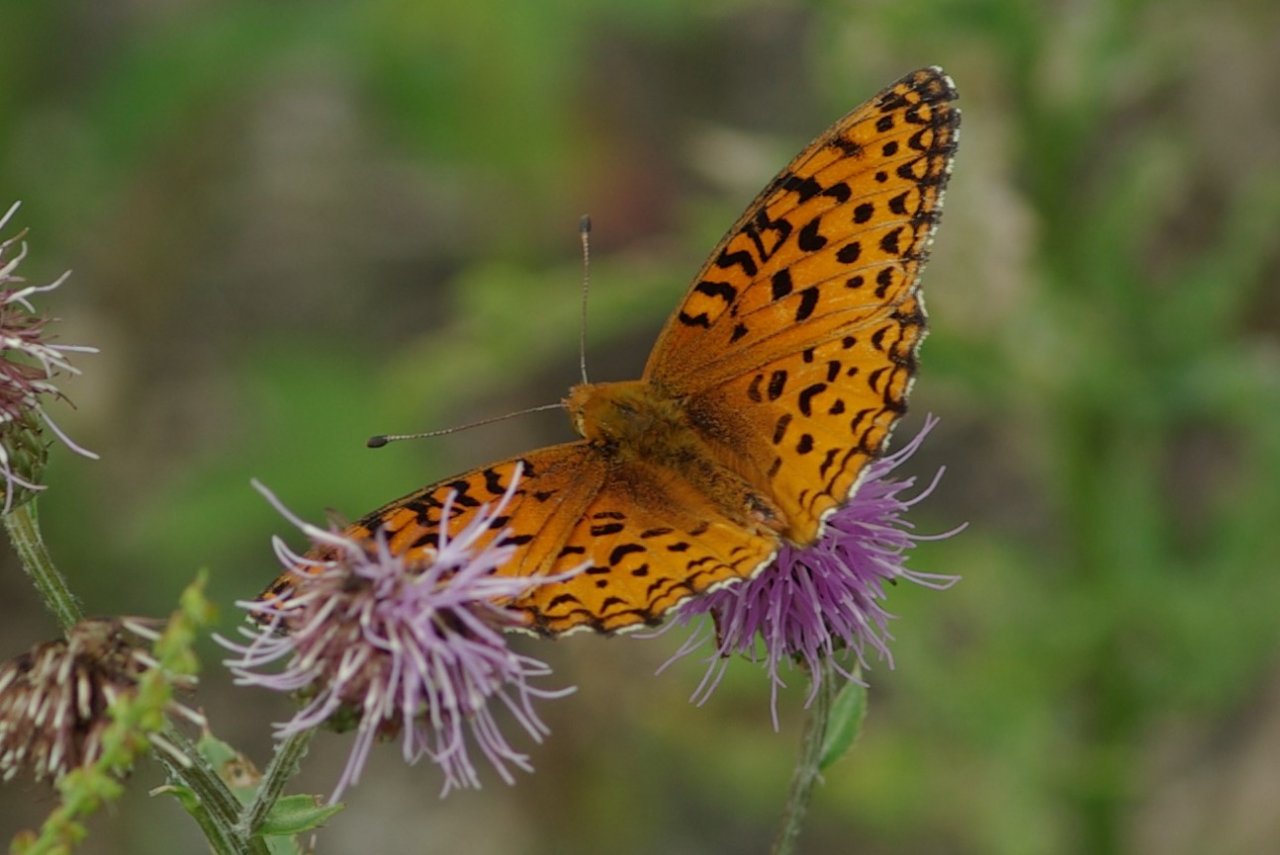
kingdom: Animalia
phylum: Arthropoda
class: Insecta
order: Lepidoptera
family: Nymphalidae
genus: Speyeria
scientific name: Speyeria aphrodite
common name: Aphrodite Fritillary
